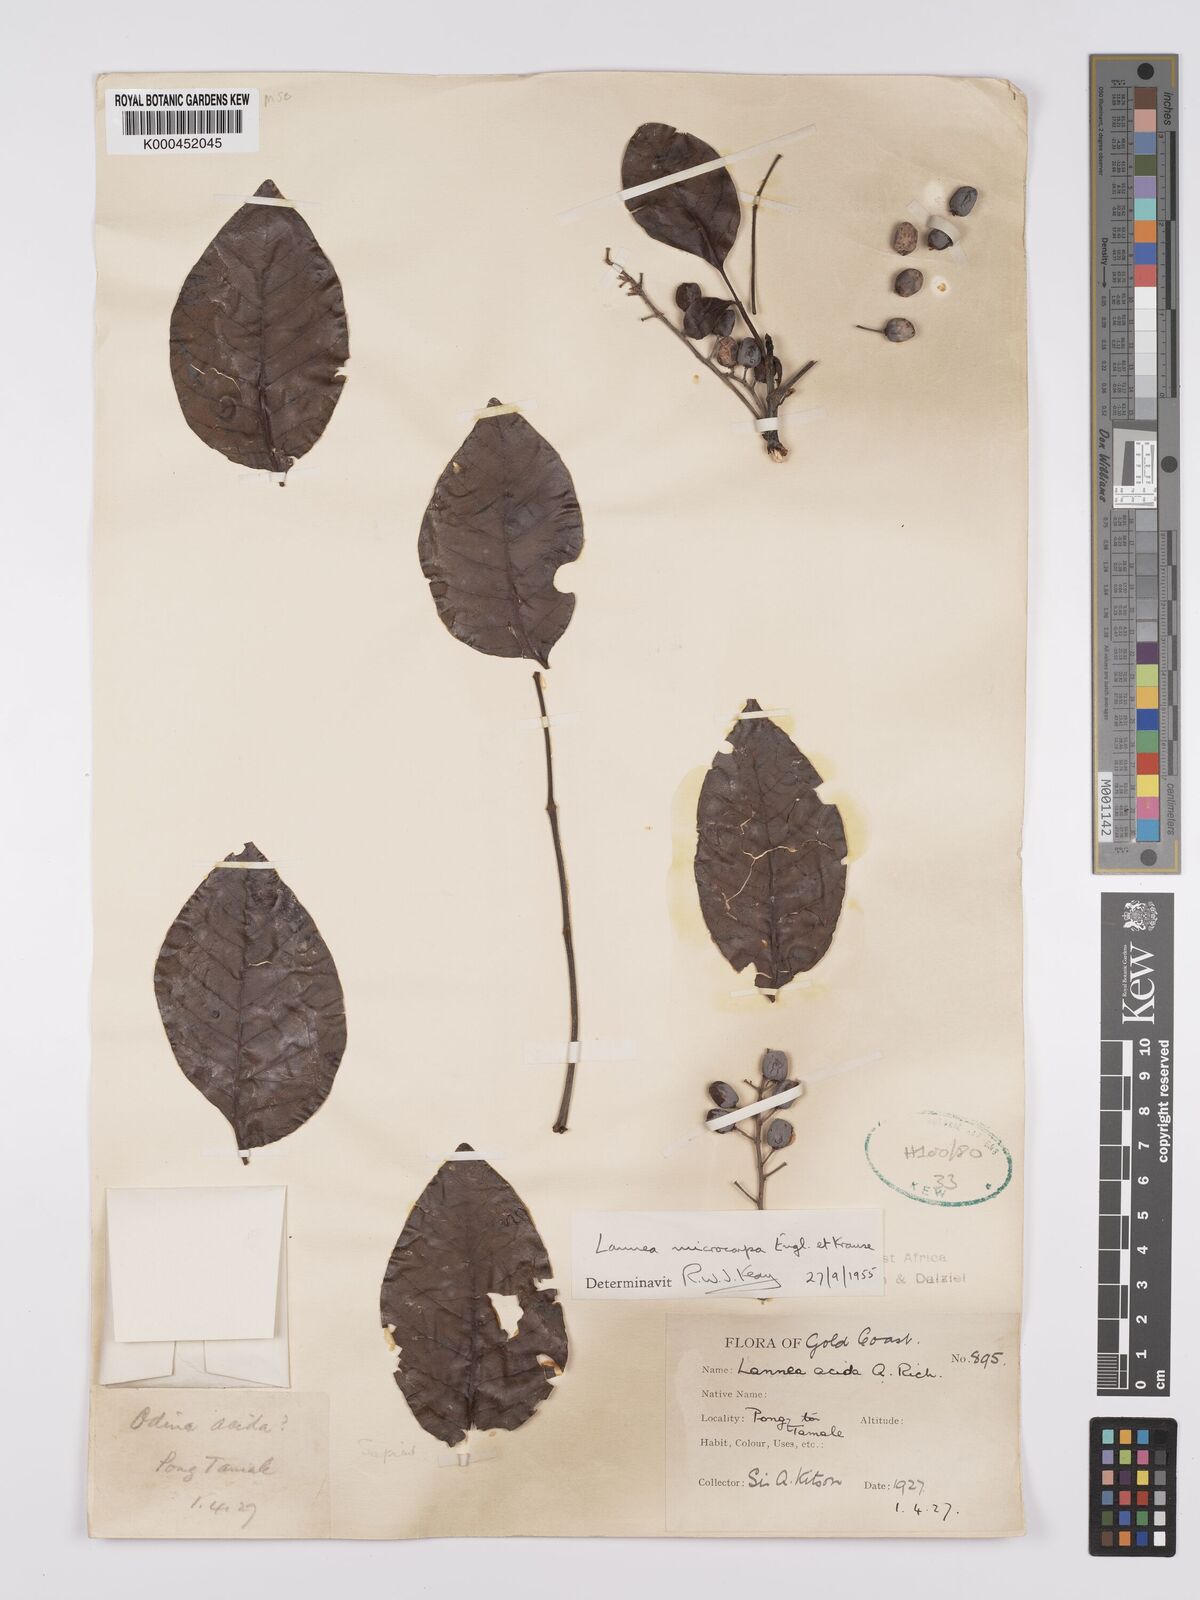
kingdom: Plantae
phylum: Tracheophyta
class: Magnoliopsida
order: Sapindales
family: Anacardiaceae
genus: Lannea
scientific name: Lannea microcarpa
